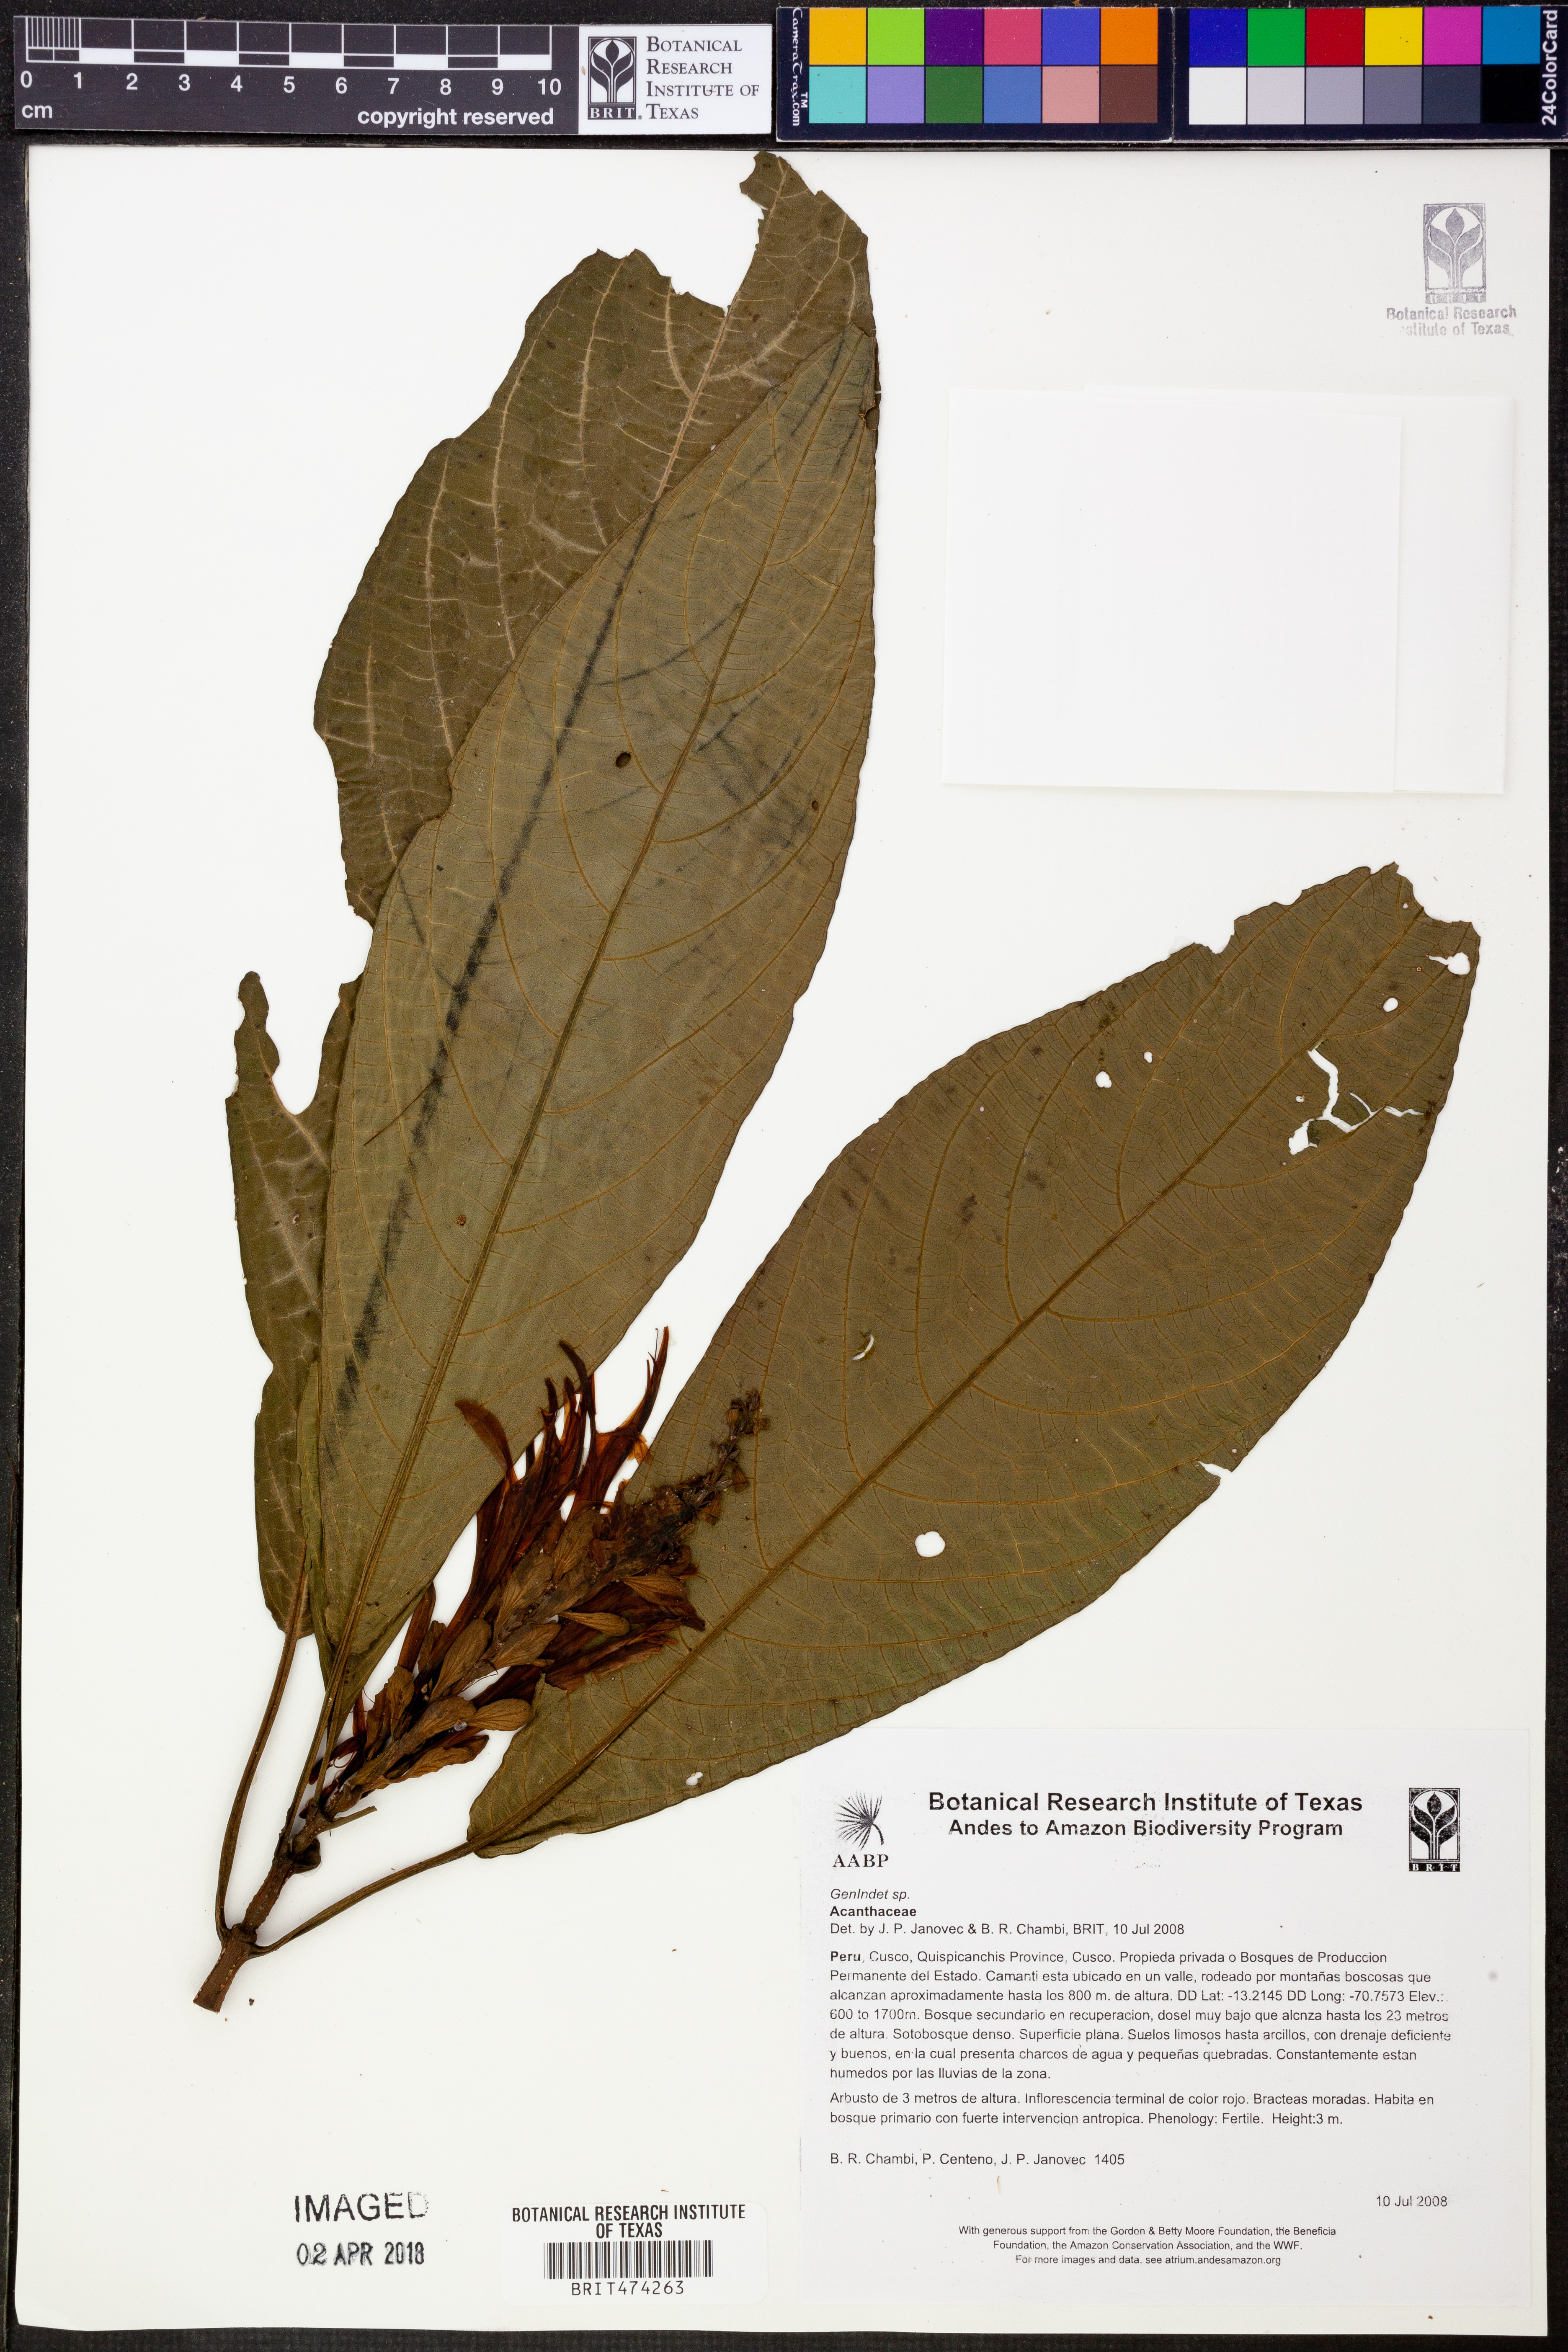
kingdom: Plantae
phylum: Tracheophyta
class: Magnoliopsida
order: Lamiales
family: Acanthaceae
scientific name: Acanthaceae
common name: Acanthaceae
